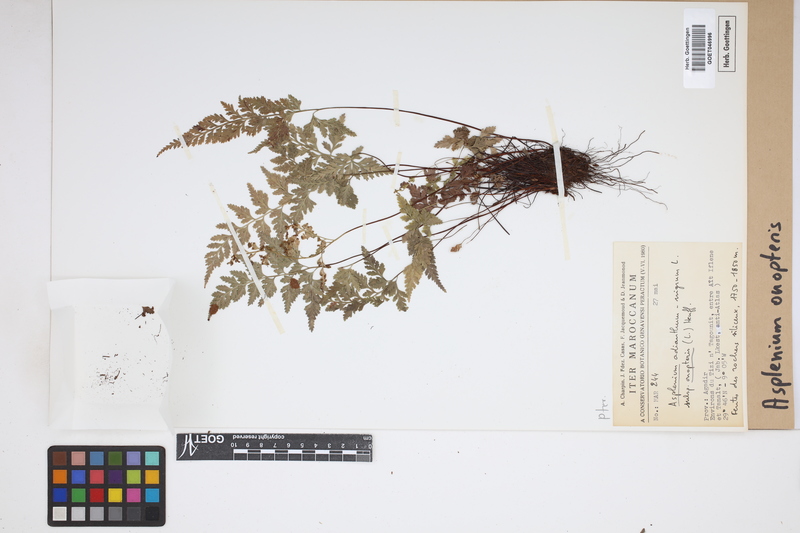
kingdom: Plantae
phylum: Tracheophyta
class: Polypodiopsida
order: Polypodiales
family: Aspleniaceae
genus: Asplenium
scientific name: Asplenium onopteris
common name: Irish spleenwort
